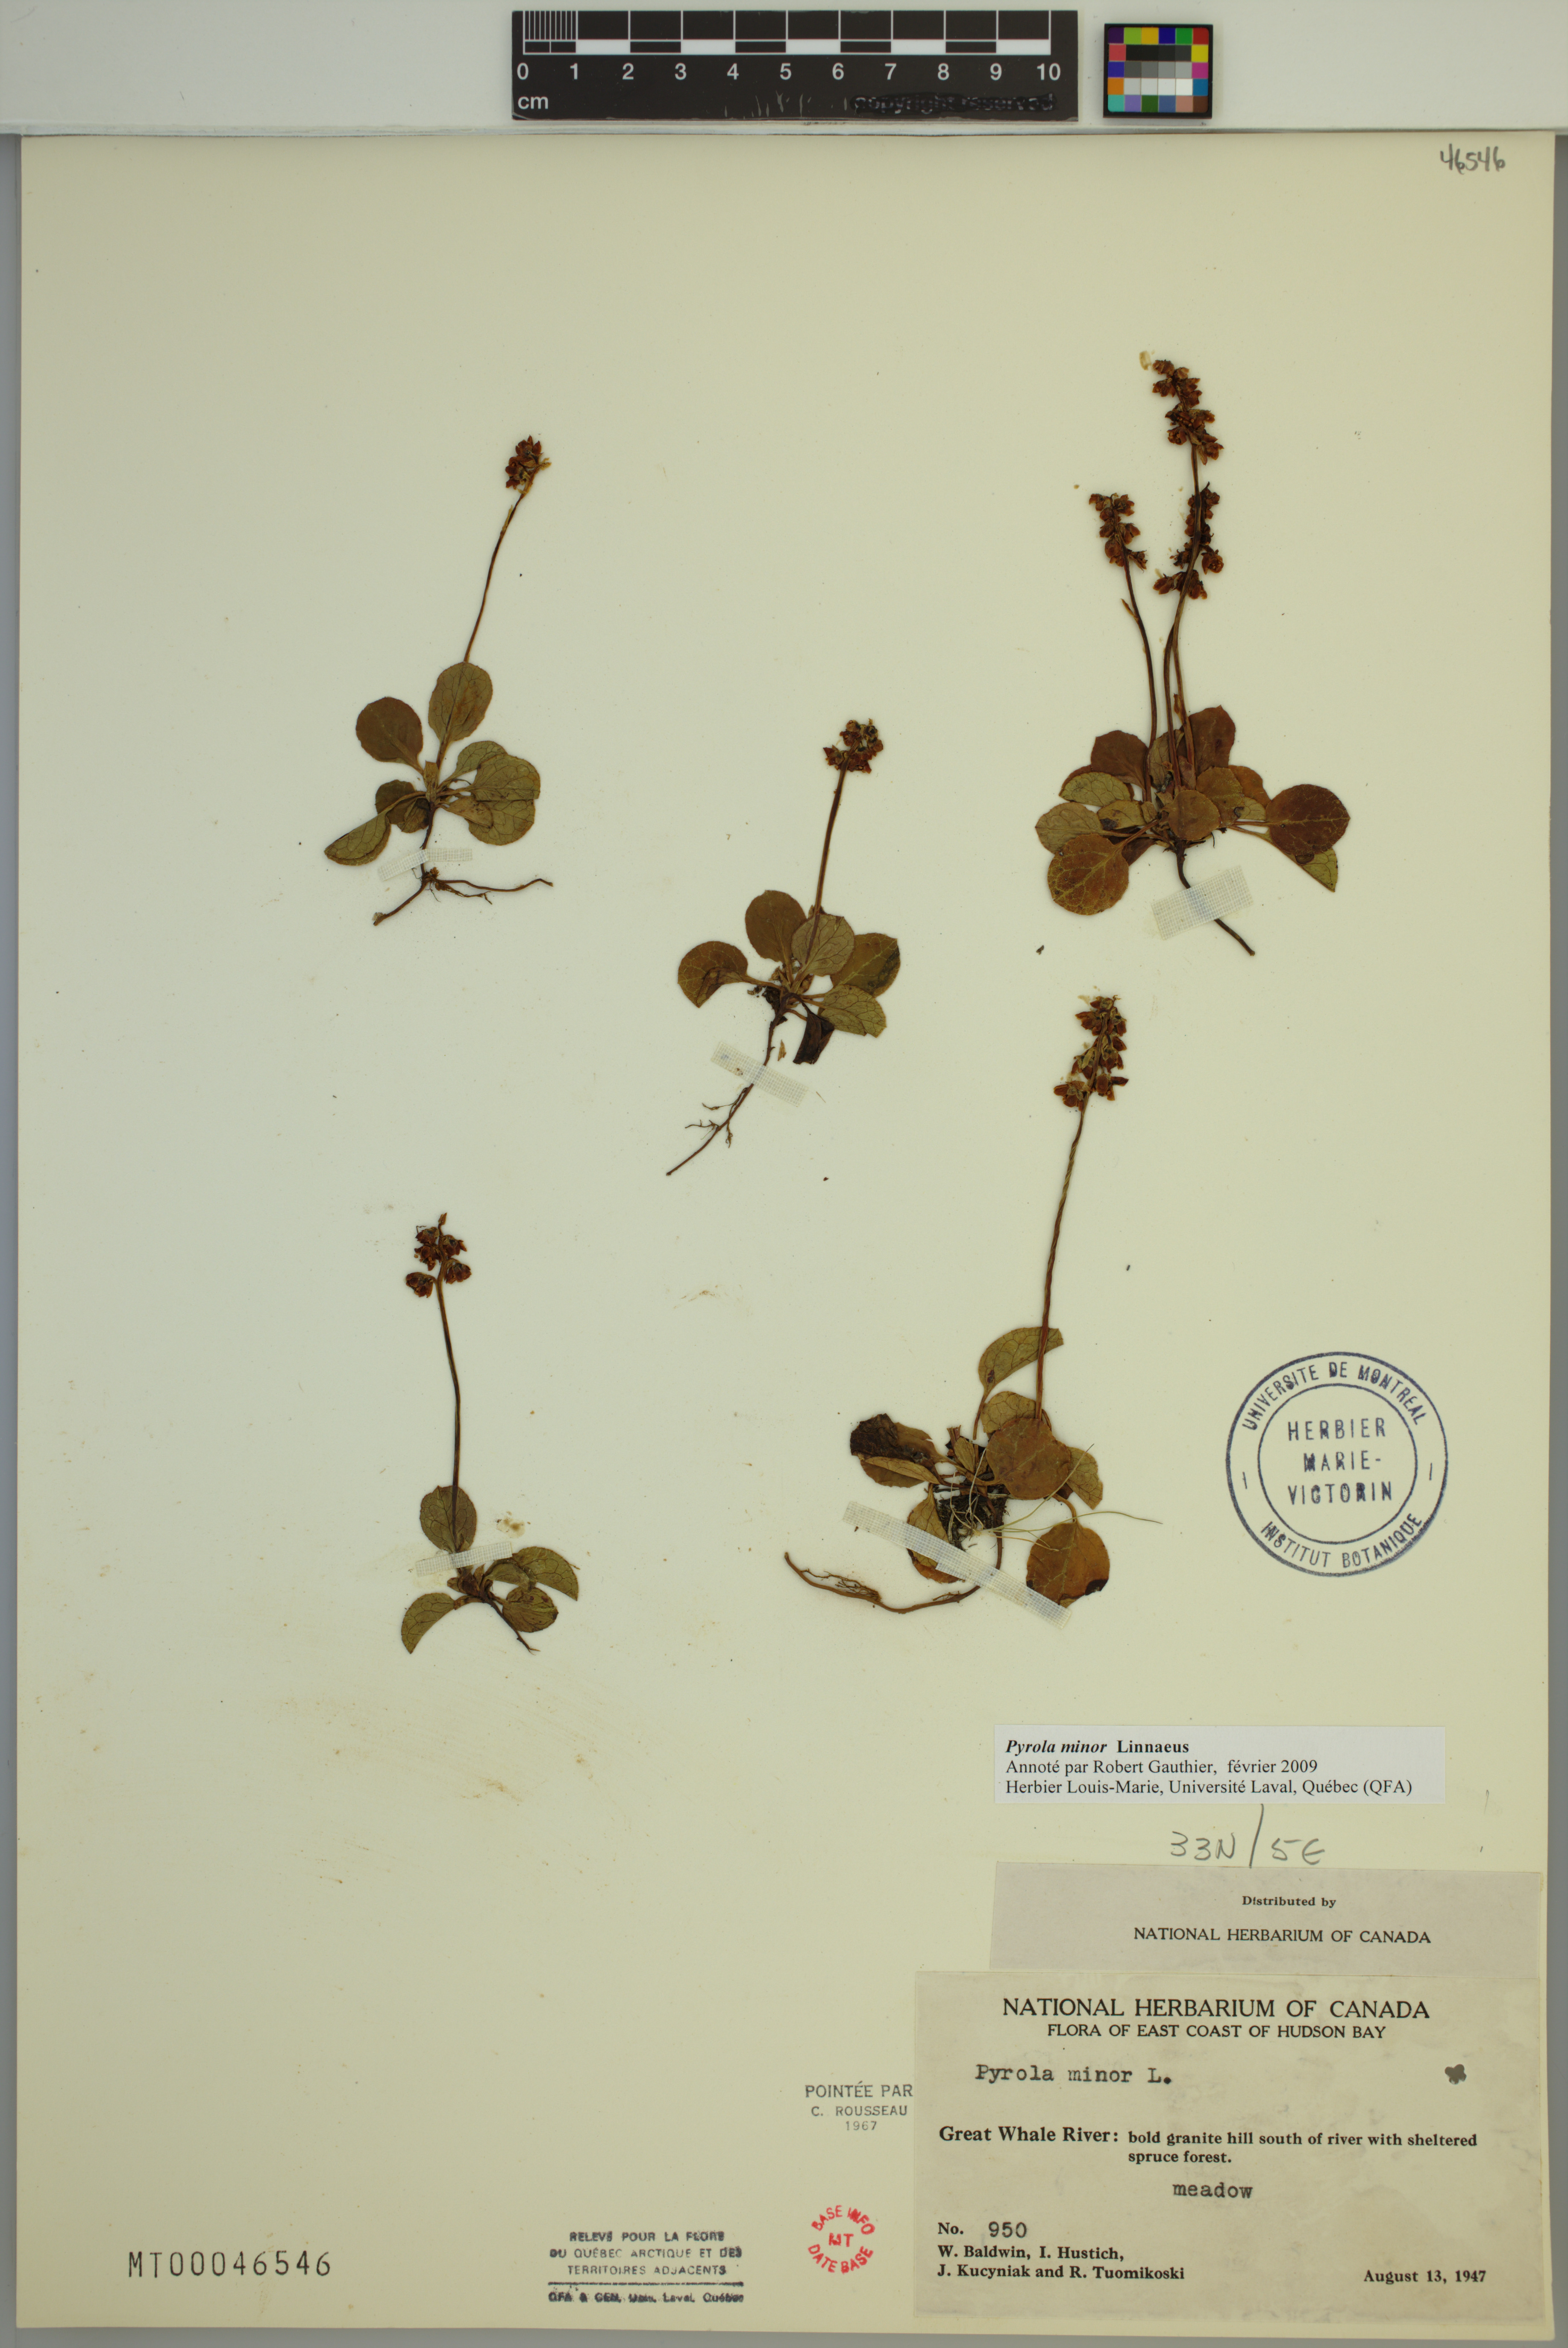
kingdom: Plantae
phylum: Tracheophyta
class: Magnoliopsida
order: Ericales
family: Ericaceae
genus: Pyrola
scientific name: Pyrola minor
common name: Common wintergreen
